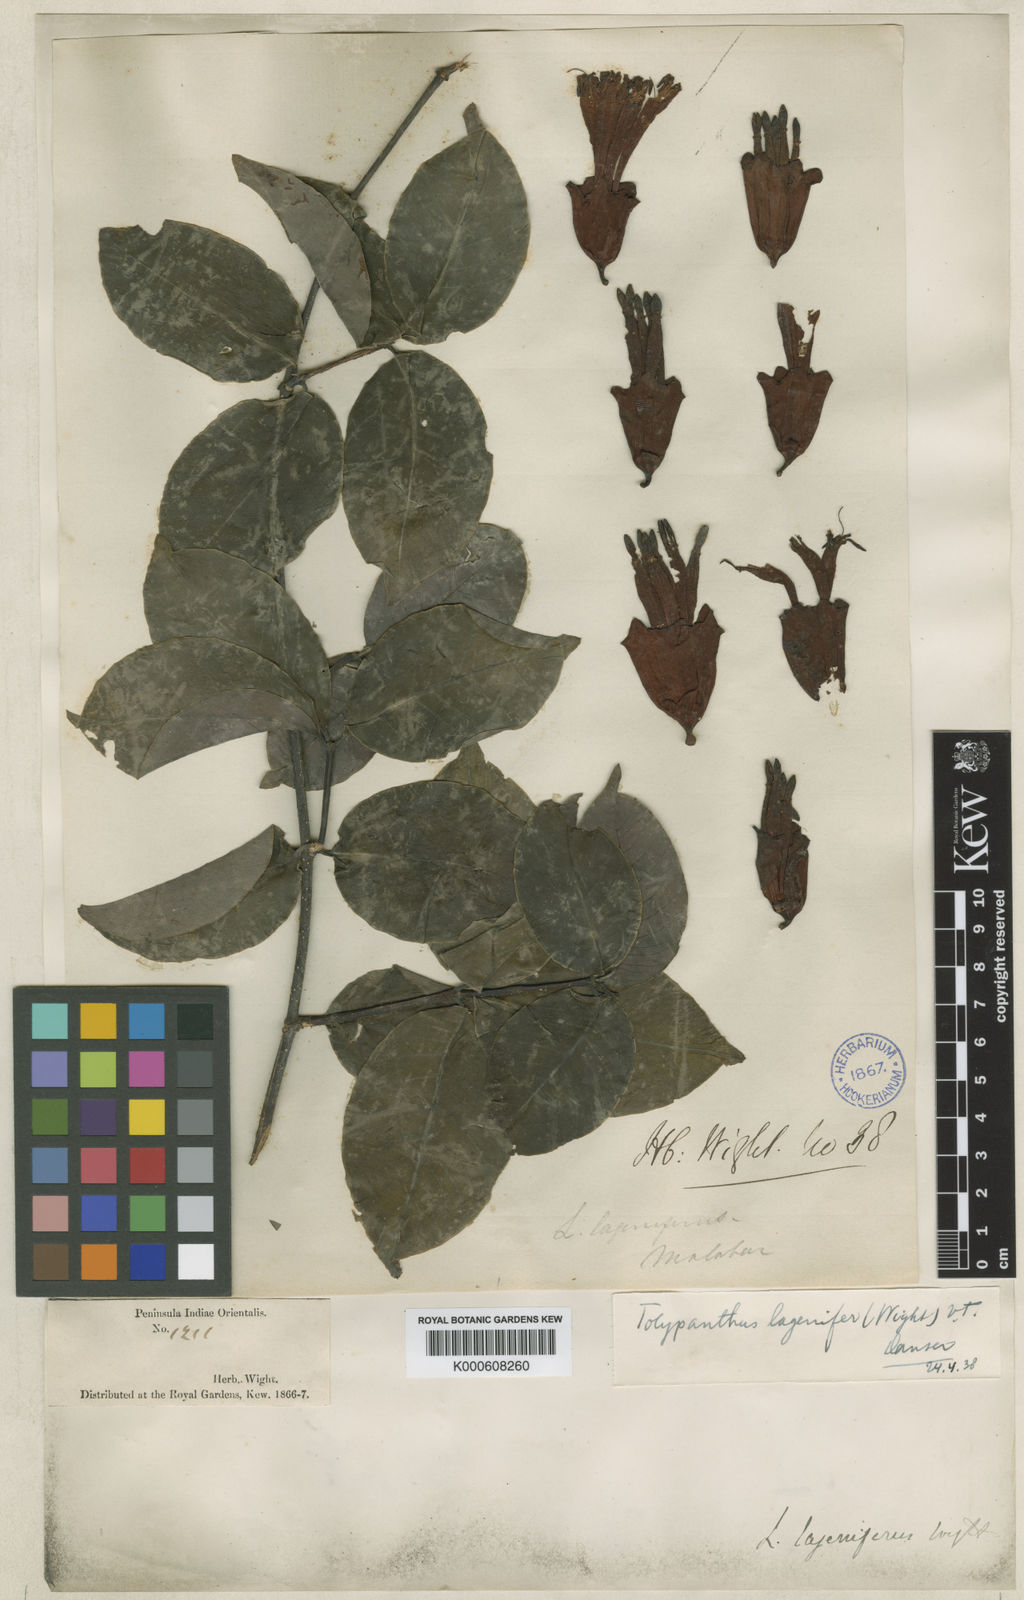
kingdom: Plantae
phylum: Tracheophyta
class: Magnoliopsida
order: Santalales
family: Loranthaceae
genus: Tolypanthus
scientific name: Tolypanthus
